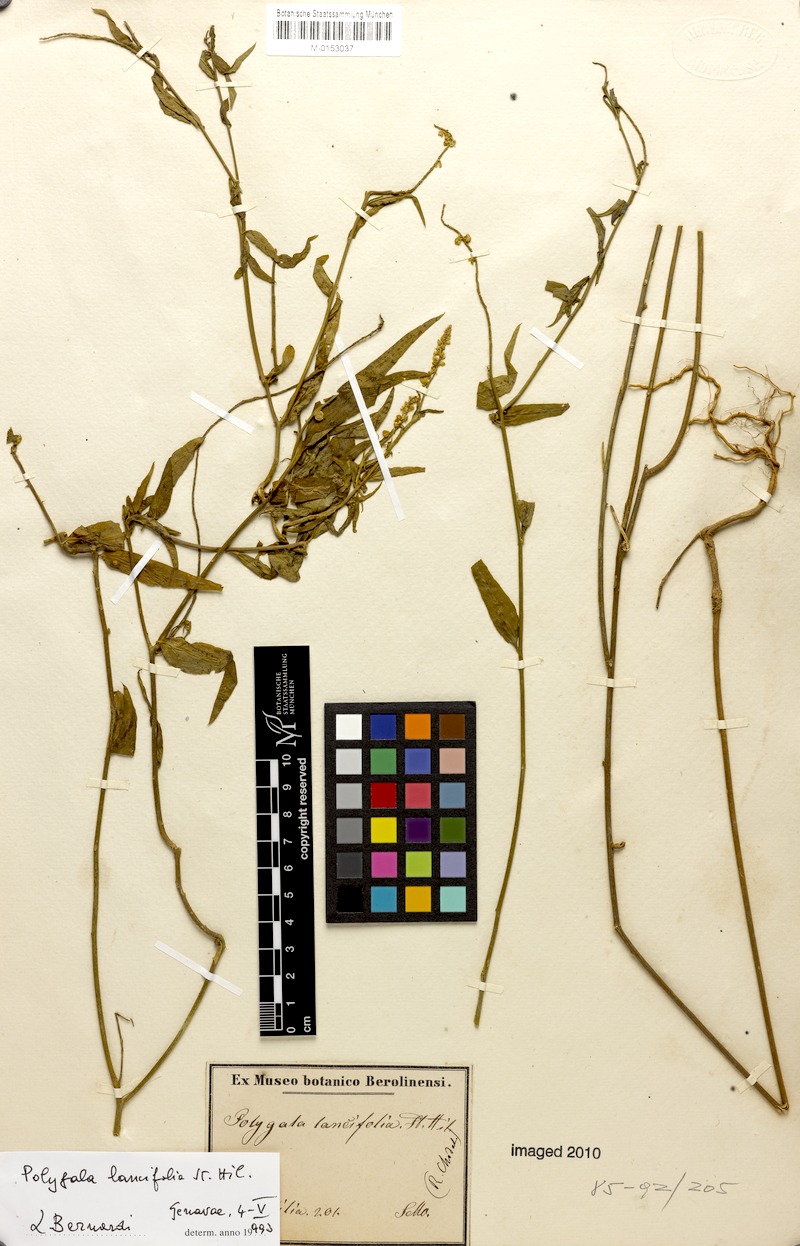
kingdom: Plantae
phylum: Tracheophyta
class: Magnoliopsida
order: Fabales
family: Polygalaceae
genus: Polygala
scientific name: Polygala lancifolia
